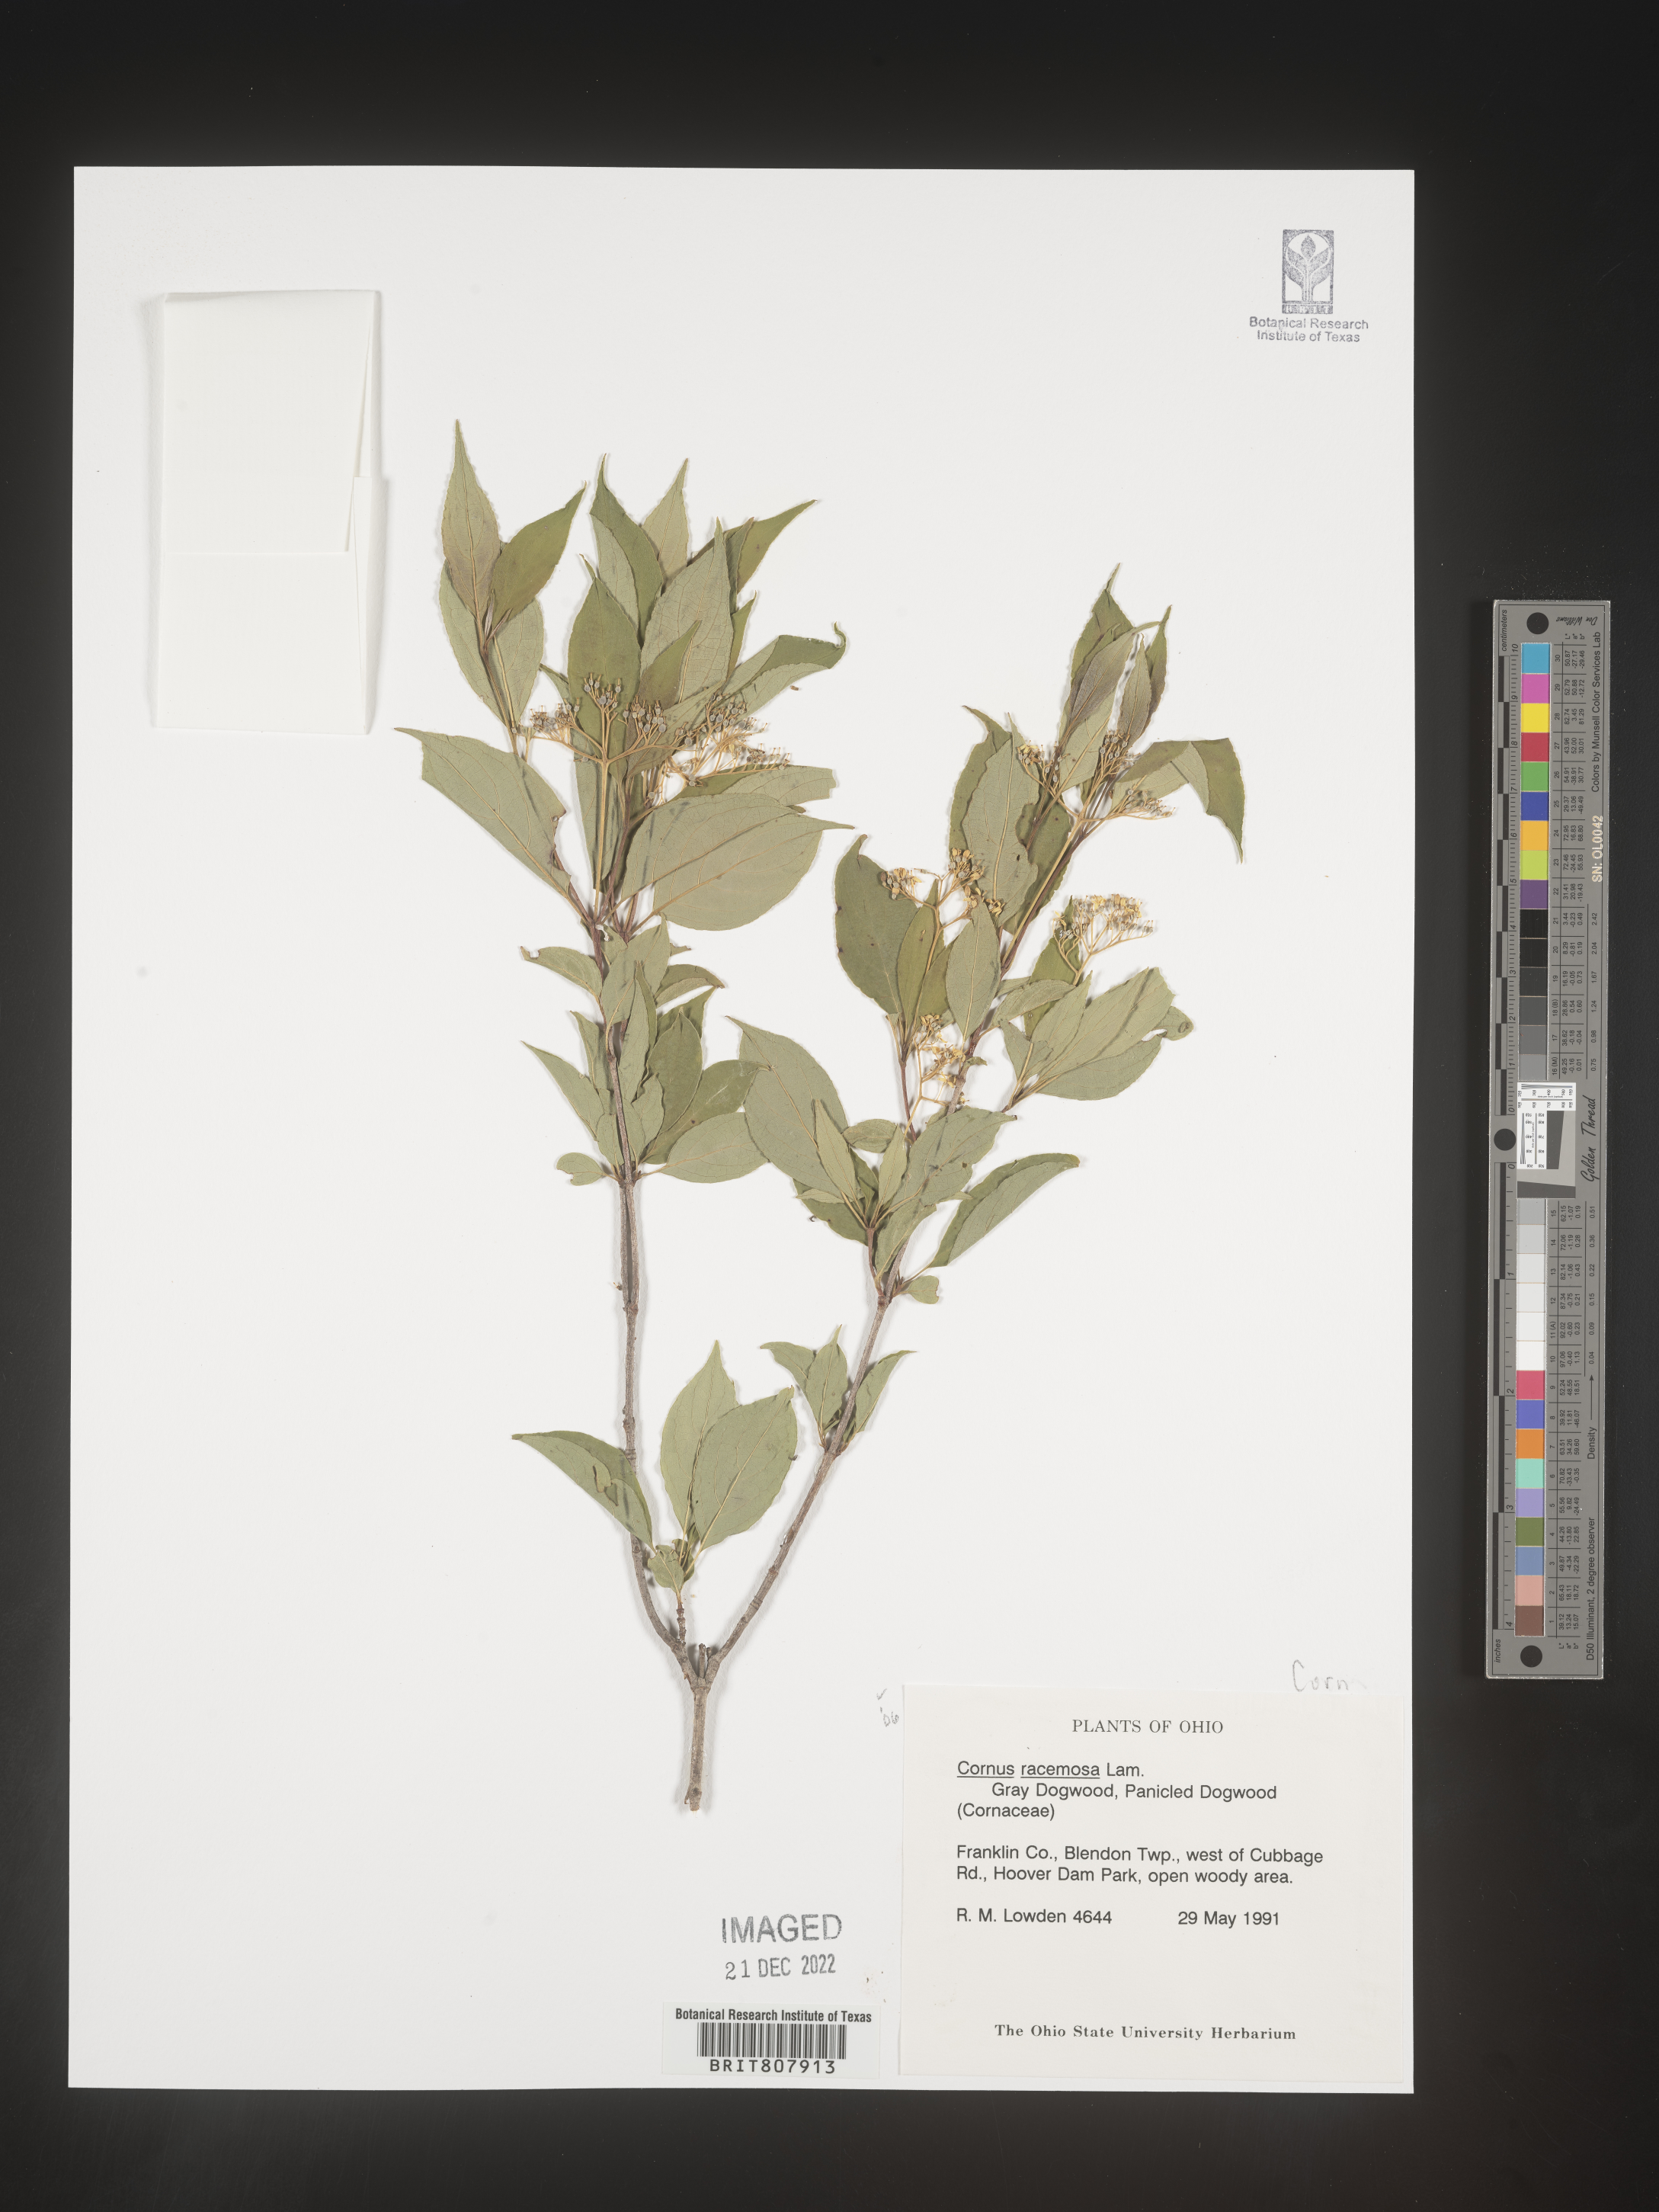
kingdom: Plantae
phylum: Tracheophyta
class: Magnoliopsida
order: Cornales
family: Cornaceae
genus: Cornus
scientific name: Cornus racemosa
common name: Panicled dogwood
